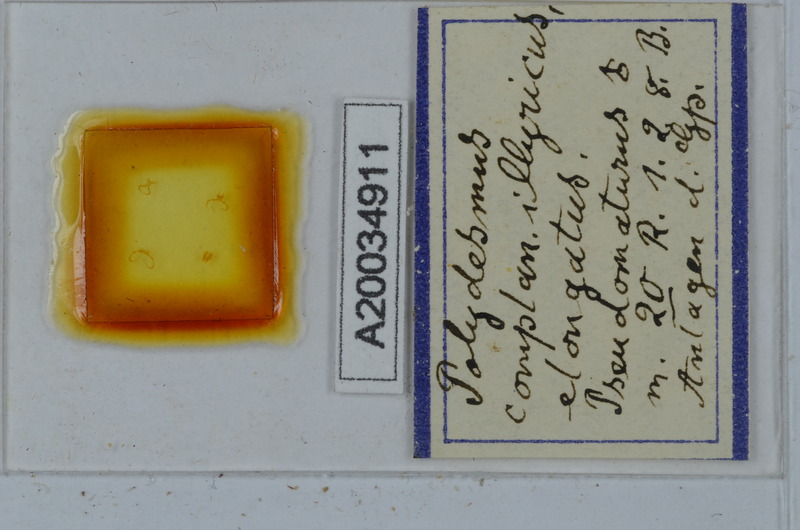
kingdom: Animalia
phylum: Arthropoda
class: Diplopoda
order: Polydesmida
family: Polydesmidae
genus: Polydesmus
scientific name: Polydesmus complanatus
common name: Flat-backed millipede
